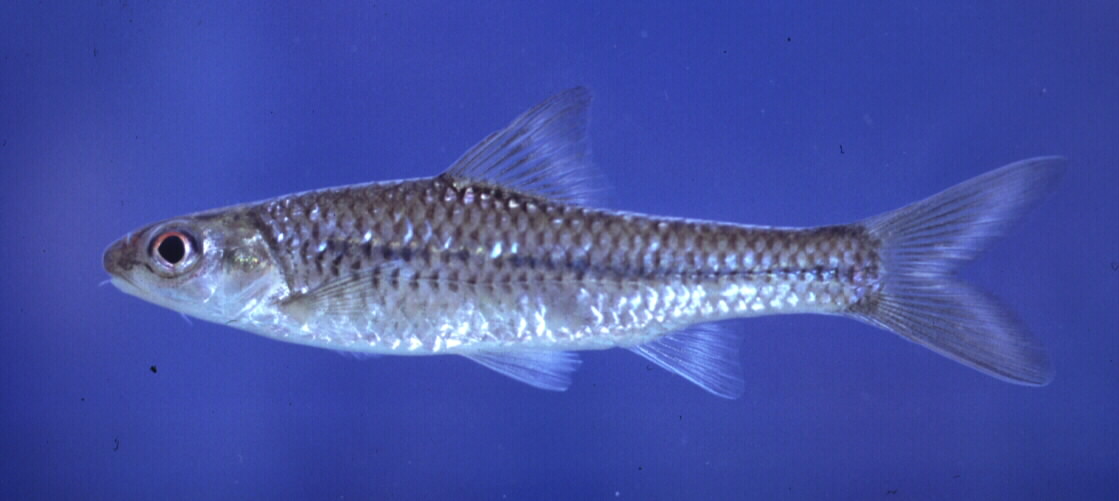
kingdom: Animalia
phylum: Chordata
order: Cypriniformes
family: Cyprinidae
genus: Enteromius
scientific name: Enteromius unitaeniatus
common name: Longbeard barb
